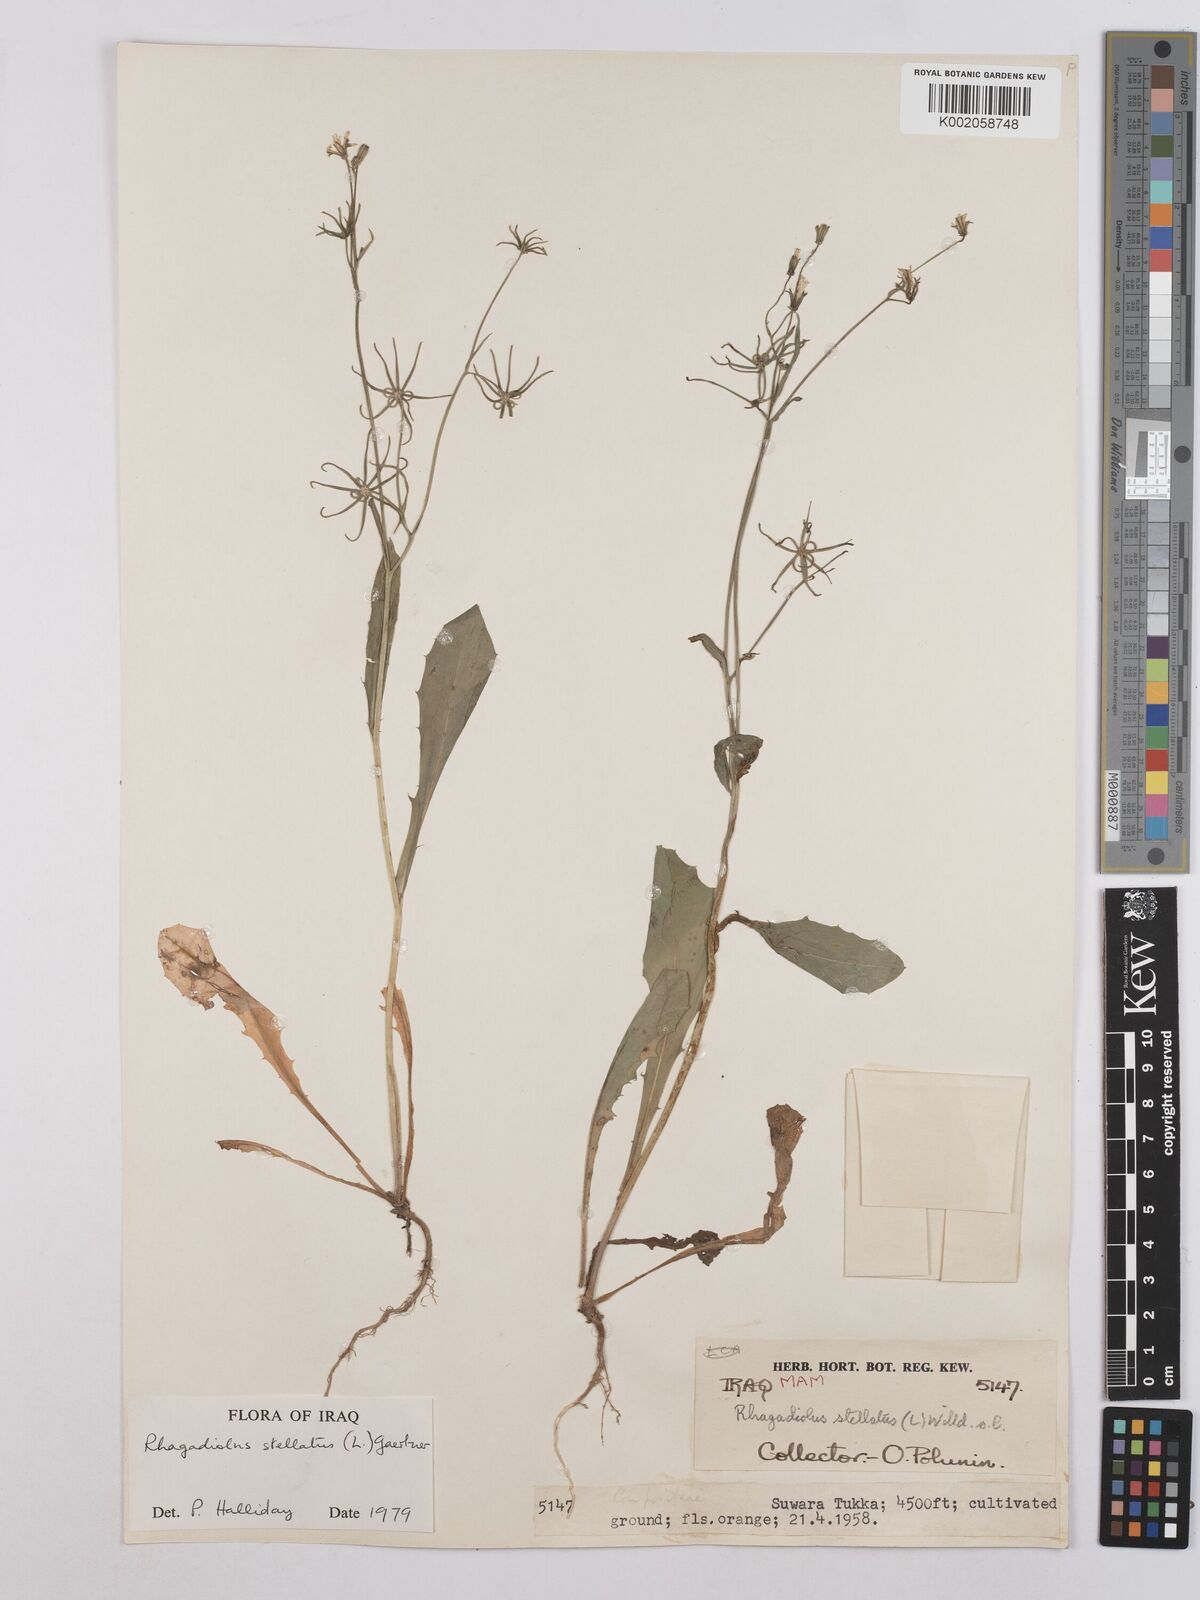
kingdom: Plantae
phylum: Tracheophyta
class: Magnoliopsida
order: Asterales
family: Asteraceae
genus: Rhagadiolus
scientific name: Rhagadiolus stellatus
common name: Star hawkbit
